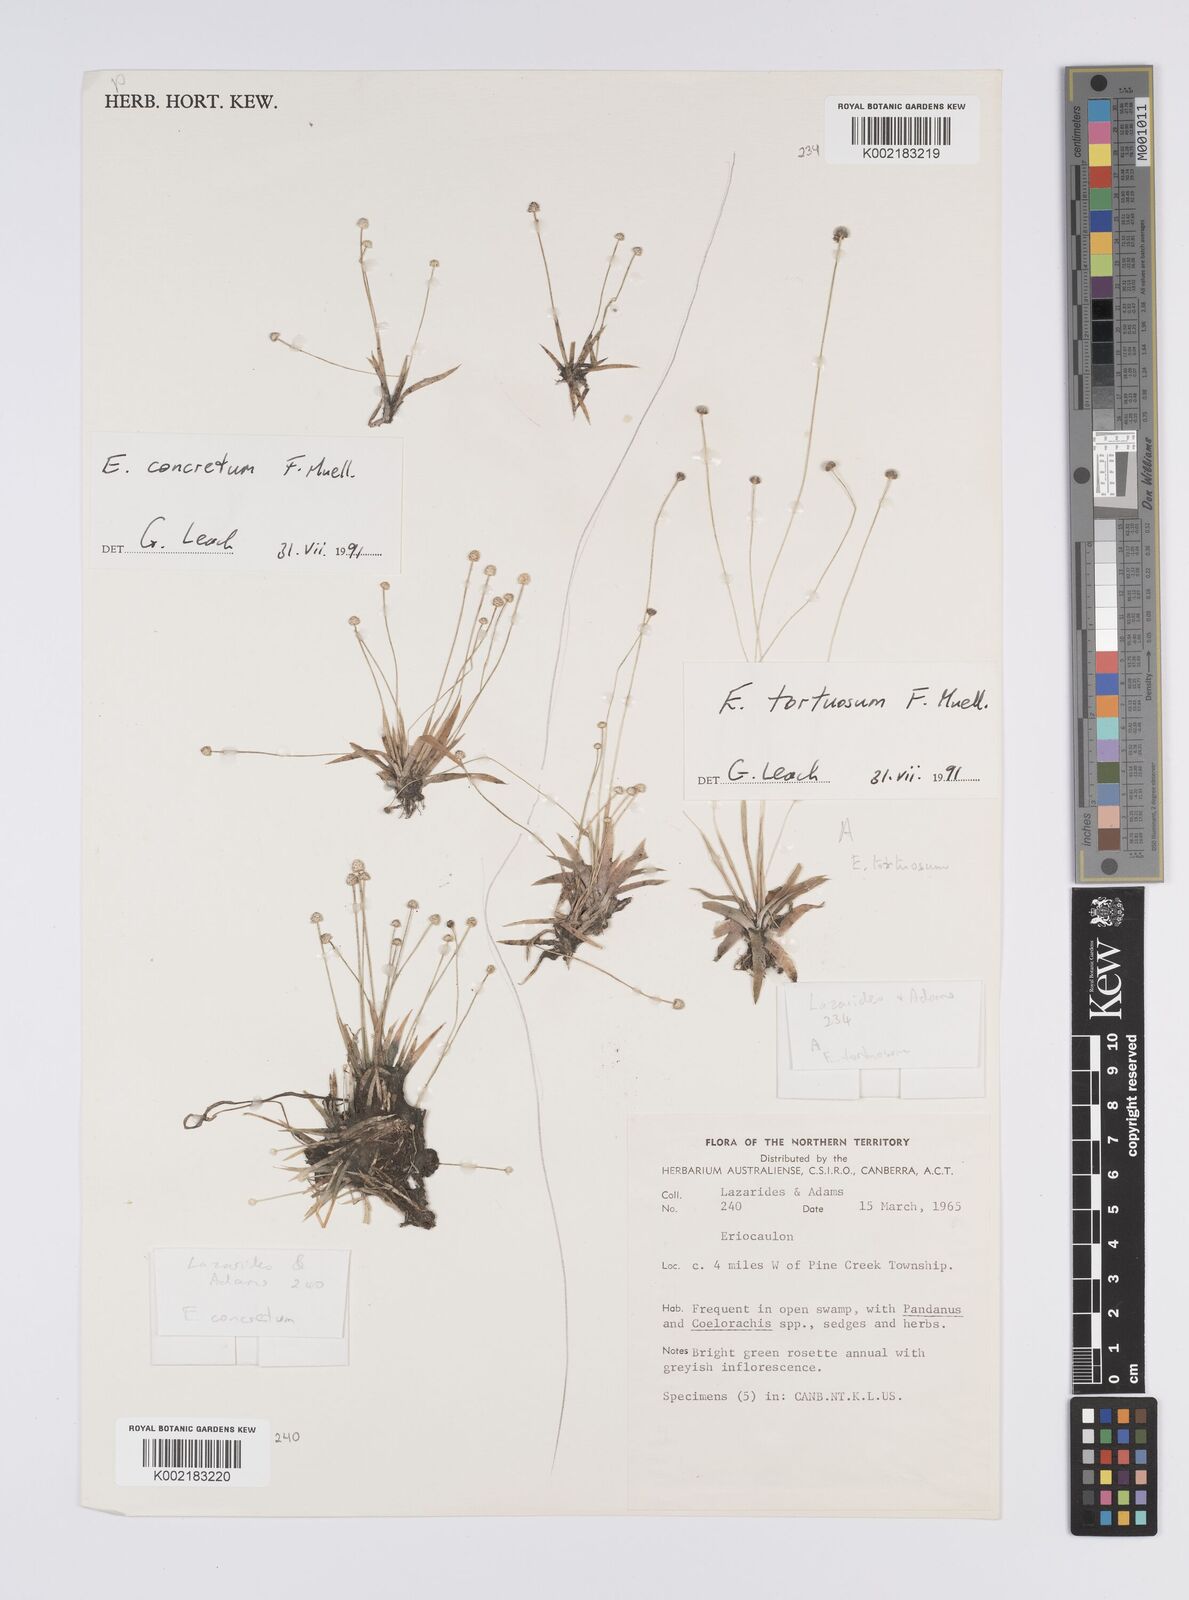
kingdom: Plantae
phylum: Tracheophyta
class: Liliopsida
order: Poales
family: Eriocaulaceae
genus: Eriocaulon
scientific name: Eriocaulon concretum
